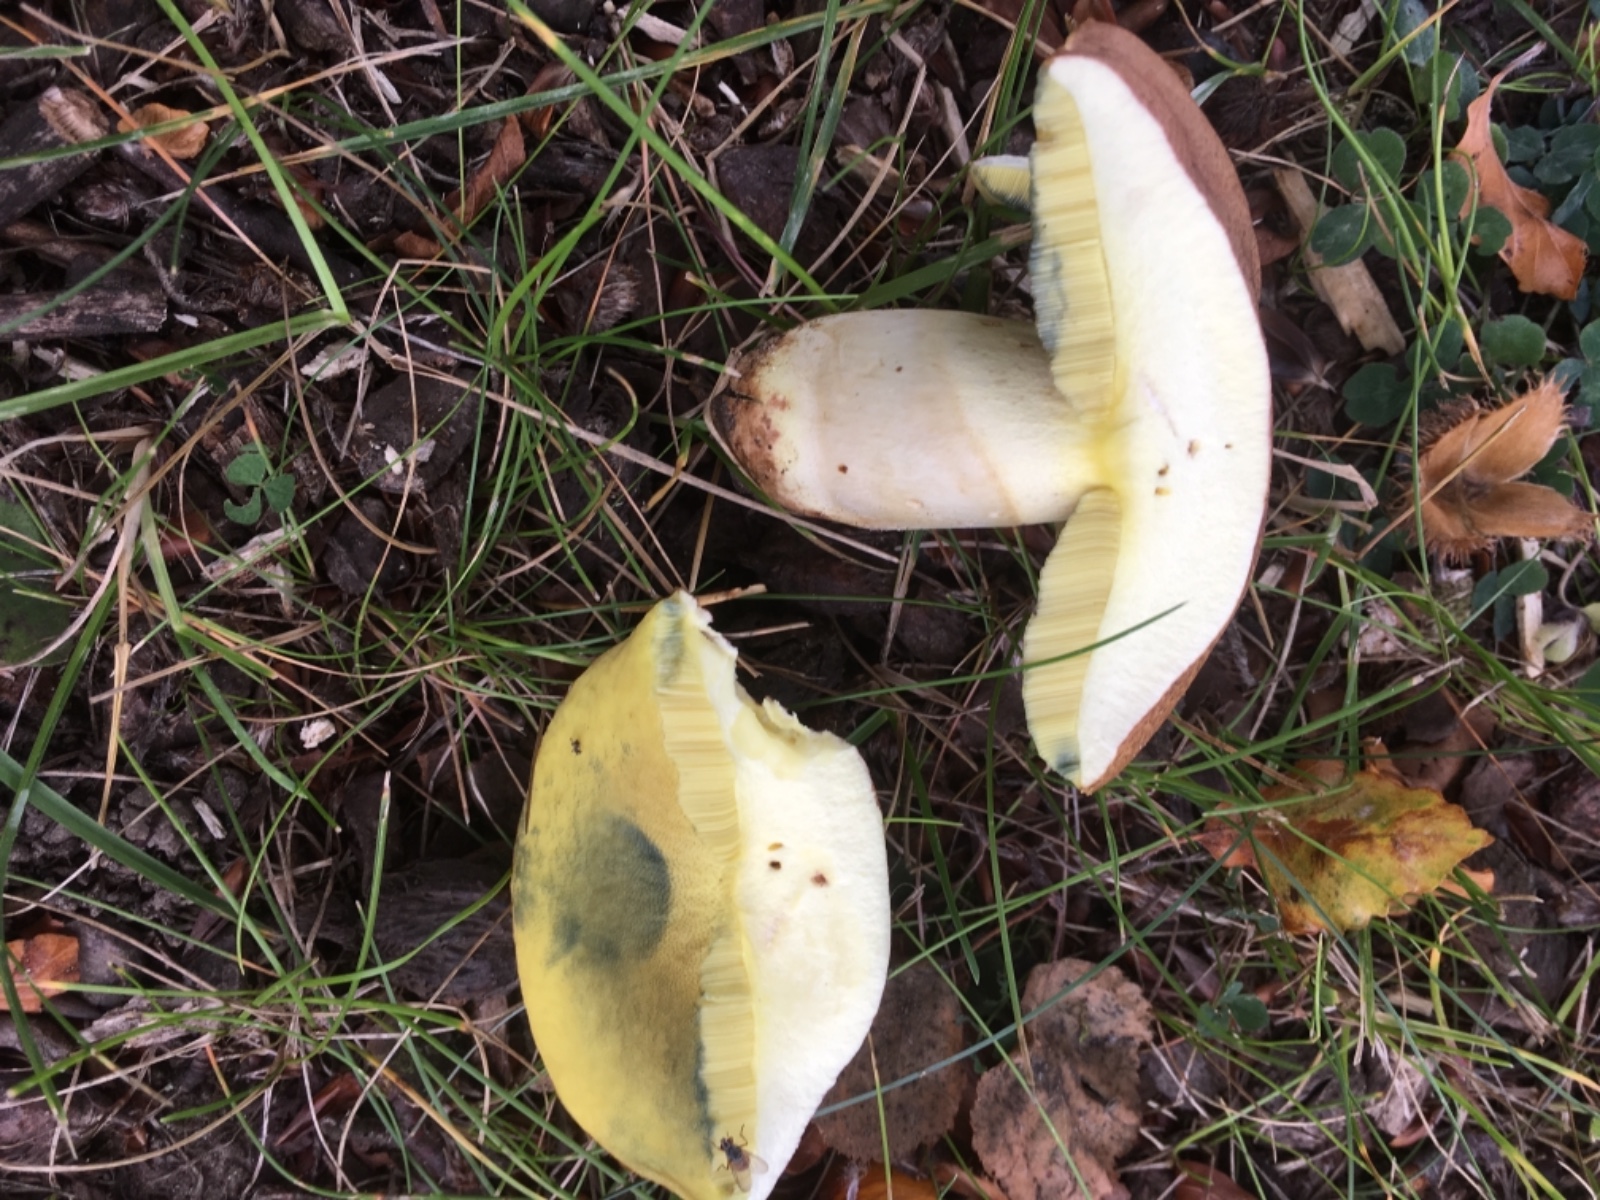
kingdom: Fungi
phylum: Basidiomycota
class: Agaricomycetes
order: Boletales
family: Boletaceae
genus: Butyriboletus
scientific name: Butyriboletus appendiculatus
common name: tenstokket rørhat
